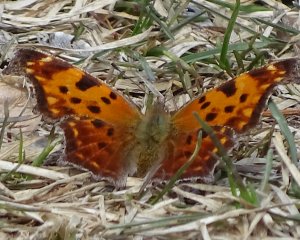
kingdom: Animalia
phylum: Arthropoda
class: Insecta
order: Lepidoptera
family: Nymphalidae
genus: Polygonia
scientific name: Polygonia comma
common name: Eastern Comma
